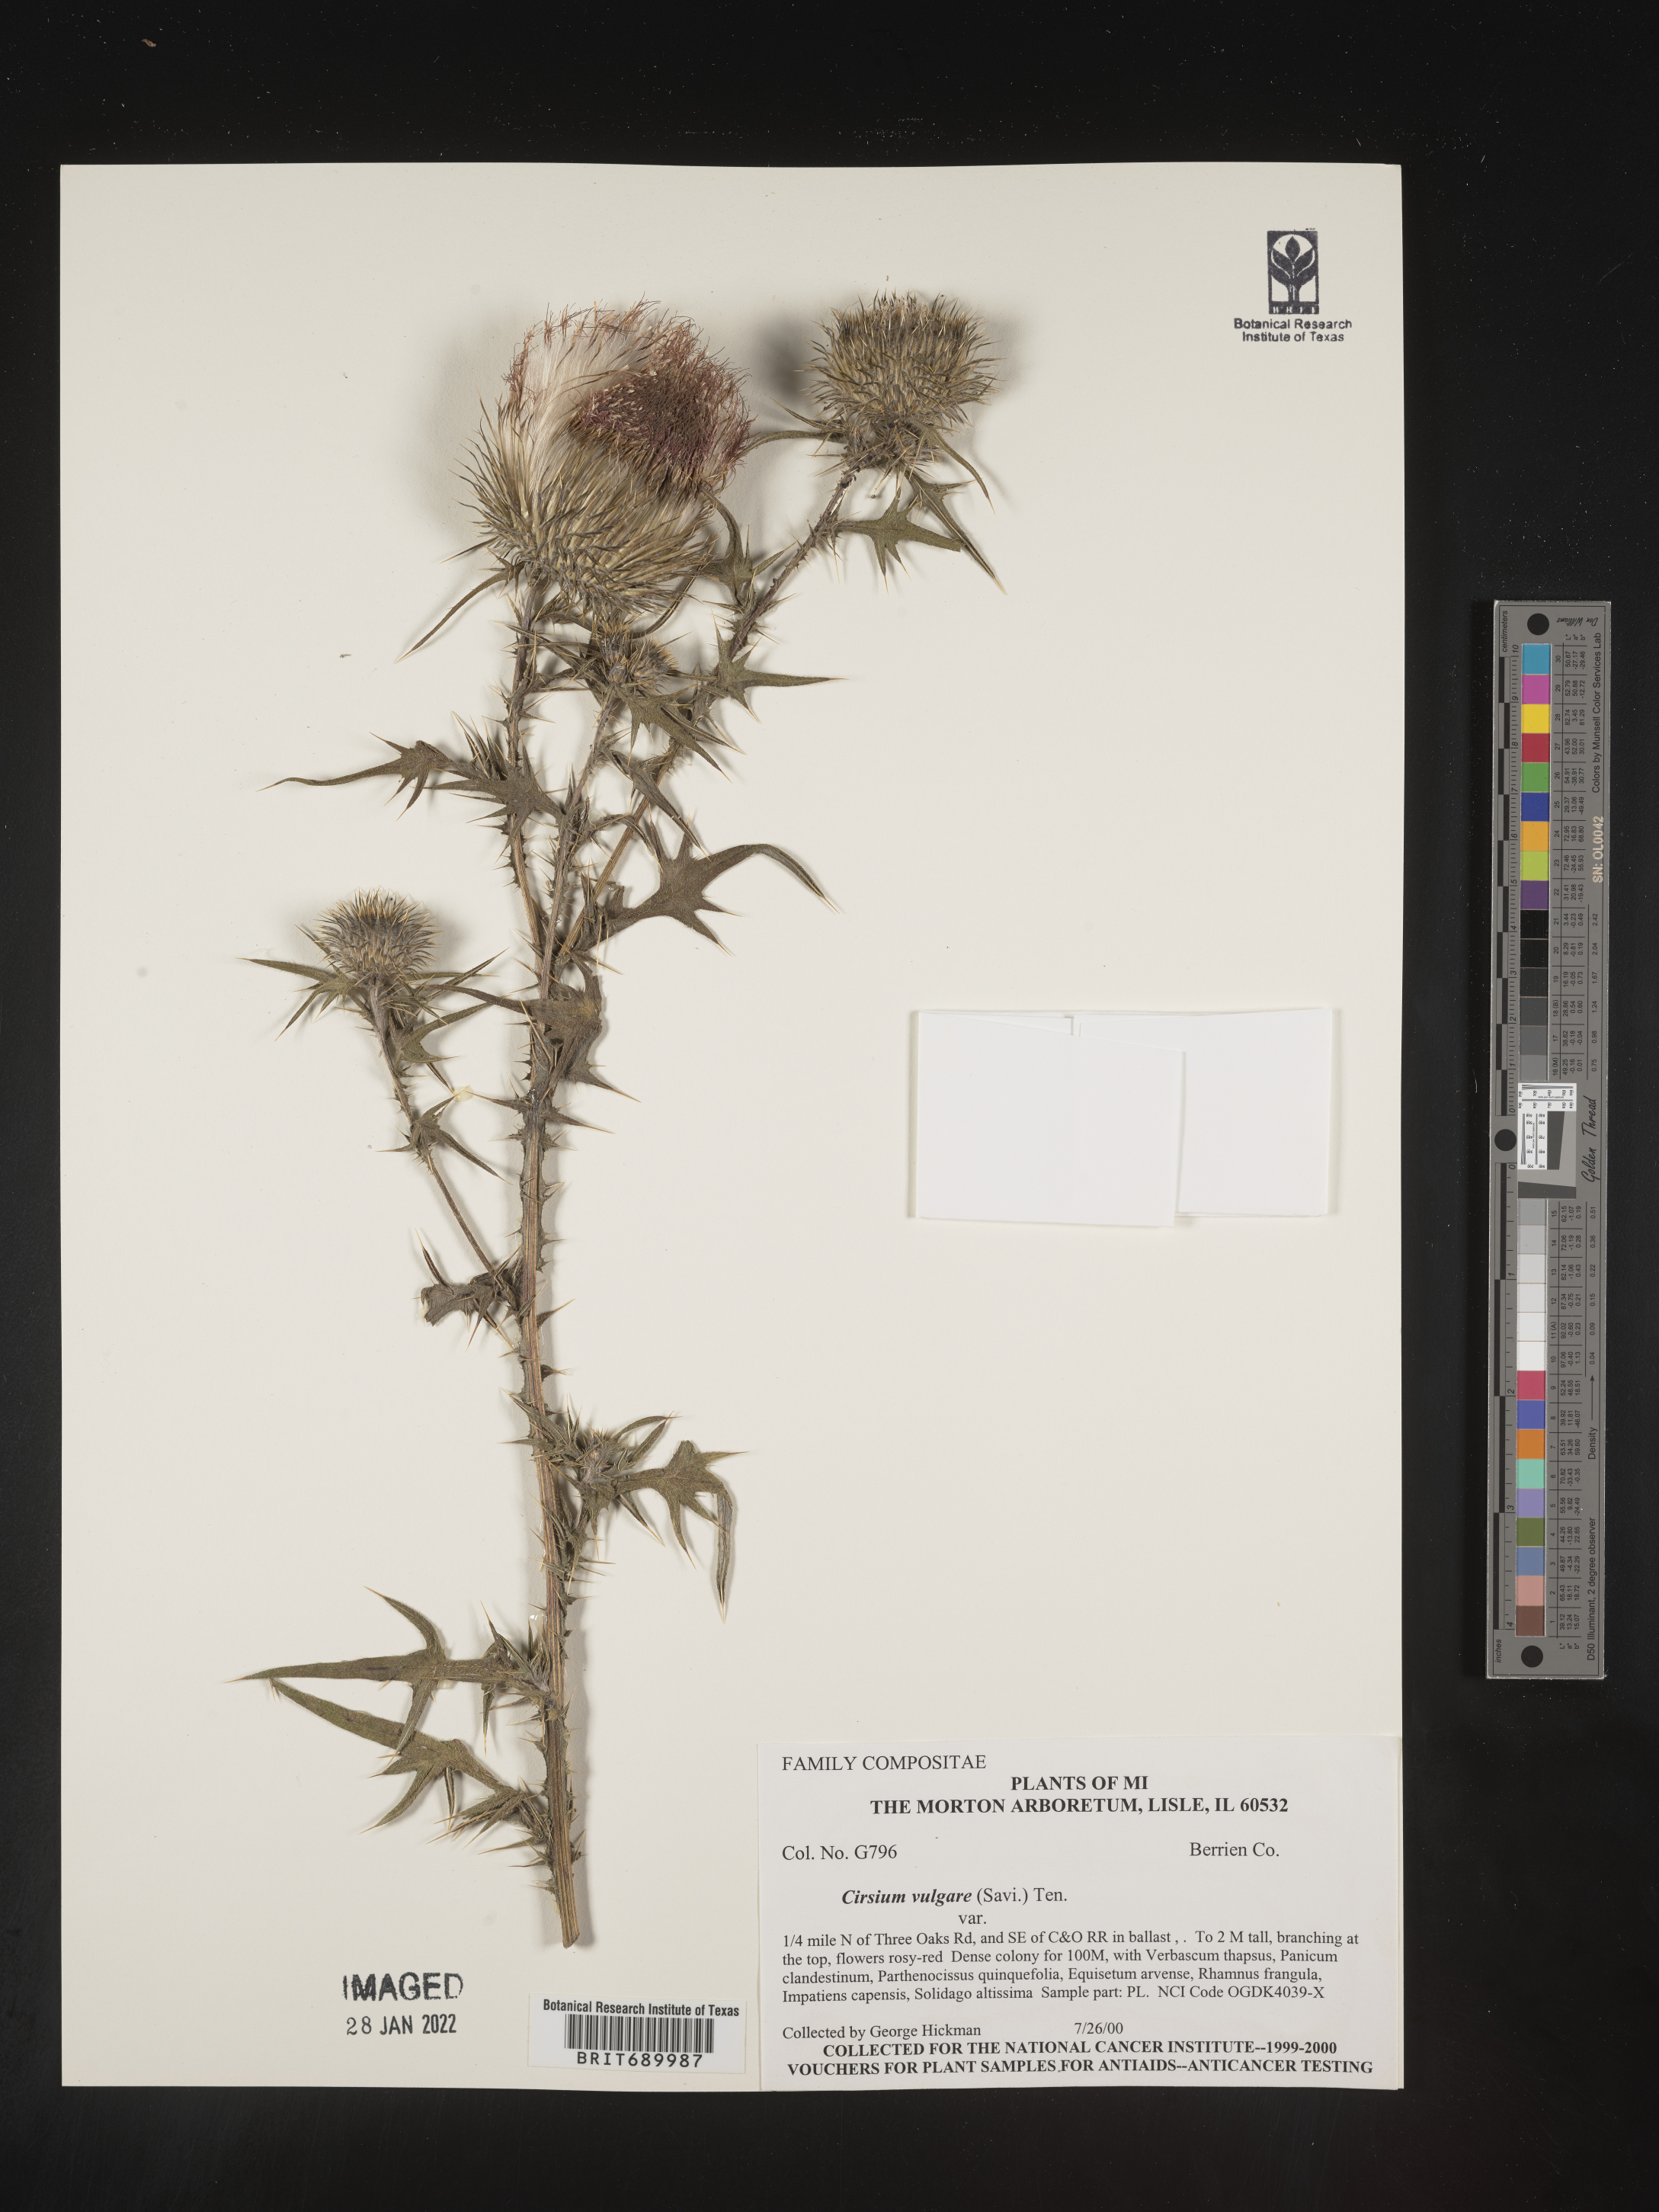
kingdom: Plantae
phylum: Tracheophyta
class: Magnoliopsida
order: Asterales
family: Asteraceae
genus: Cirsium
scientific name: Cirsium vulgare
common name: Bull thistle
